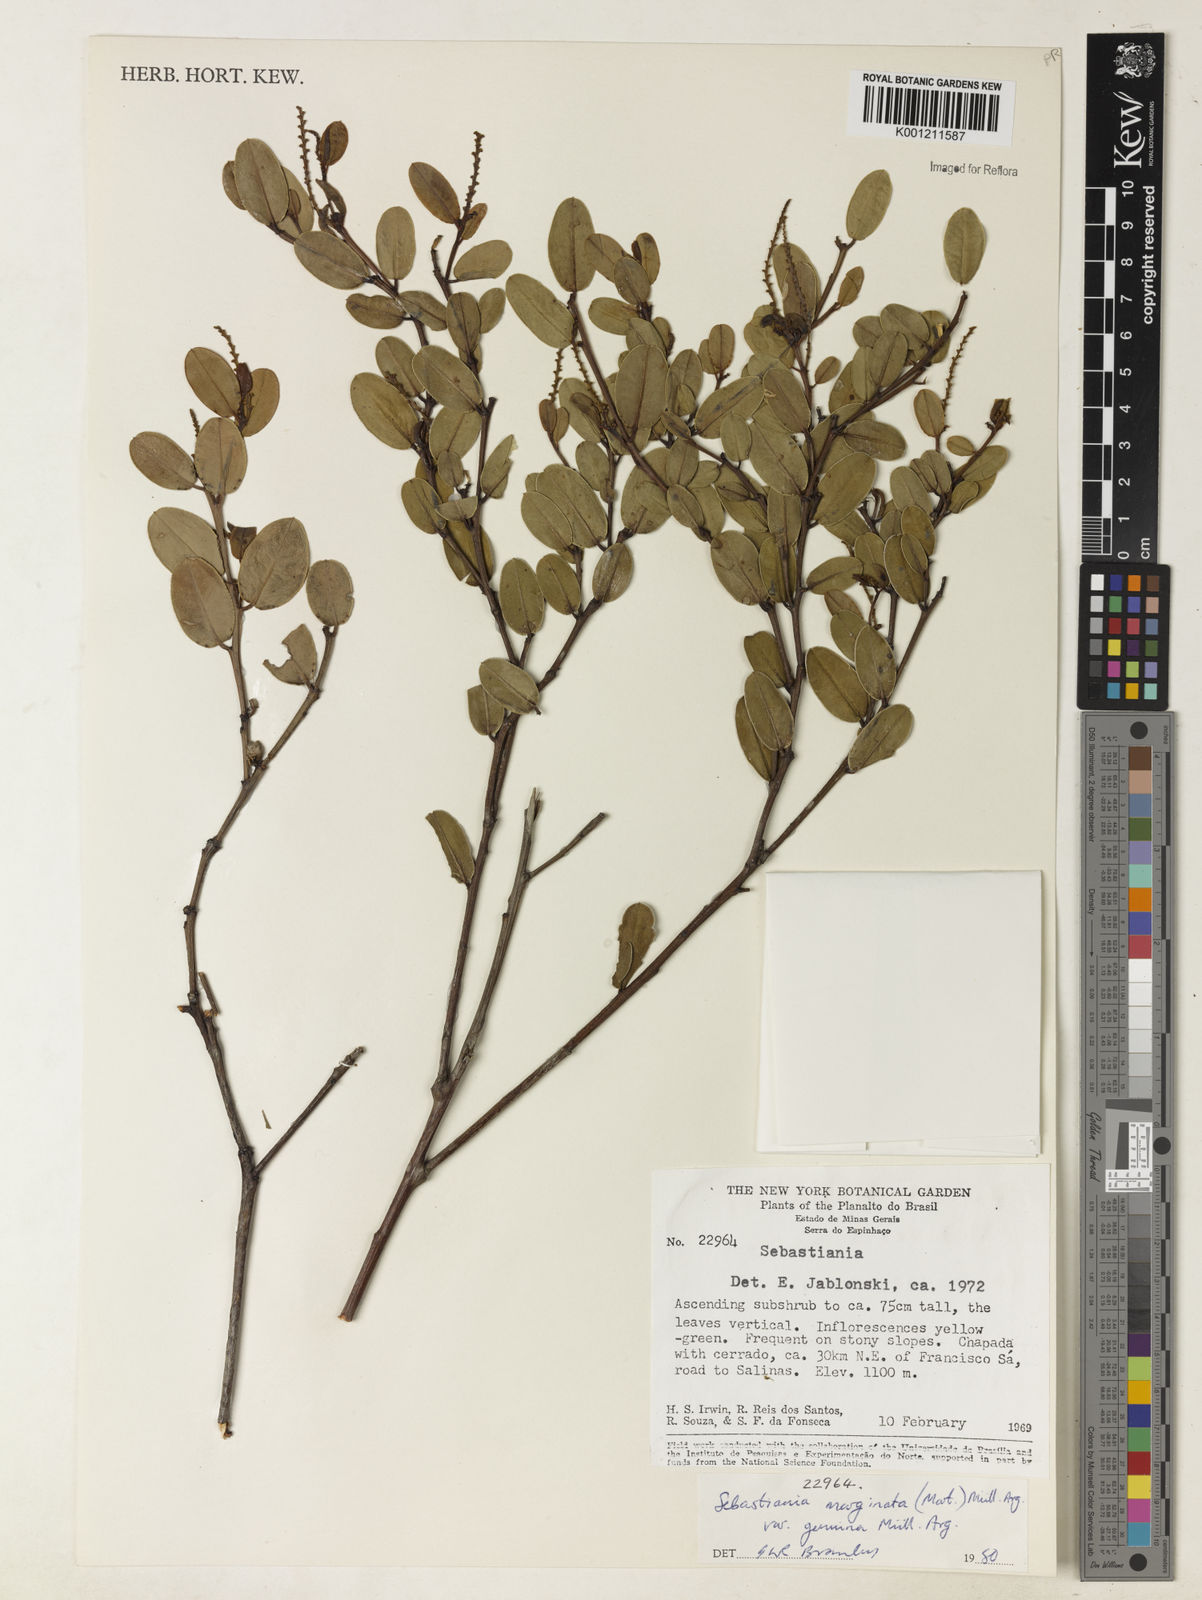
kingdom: Plantae
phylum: Tracheophyta
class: Magnoliopsida
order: Malpighiales
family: Euphorbiaceae
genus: Microstachys
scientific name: Microstachys
